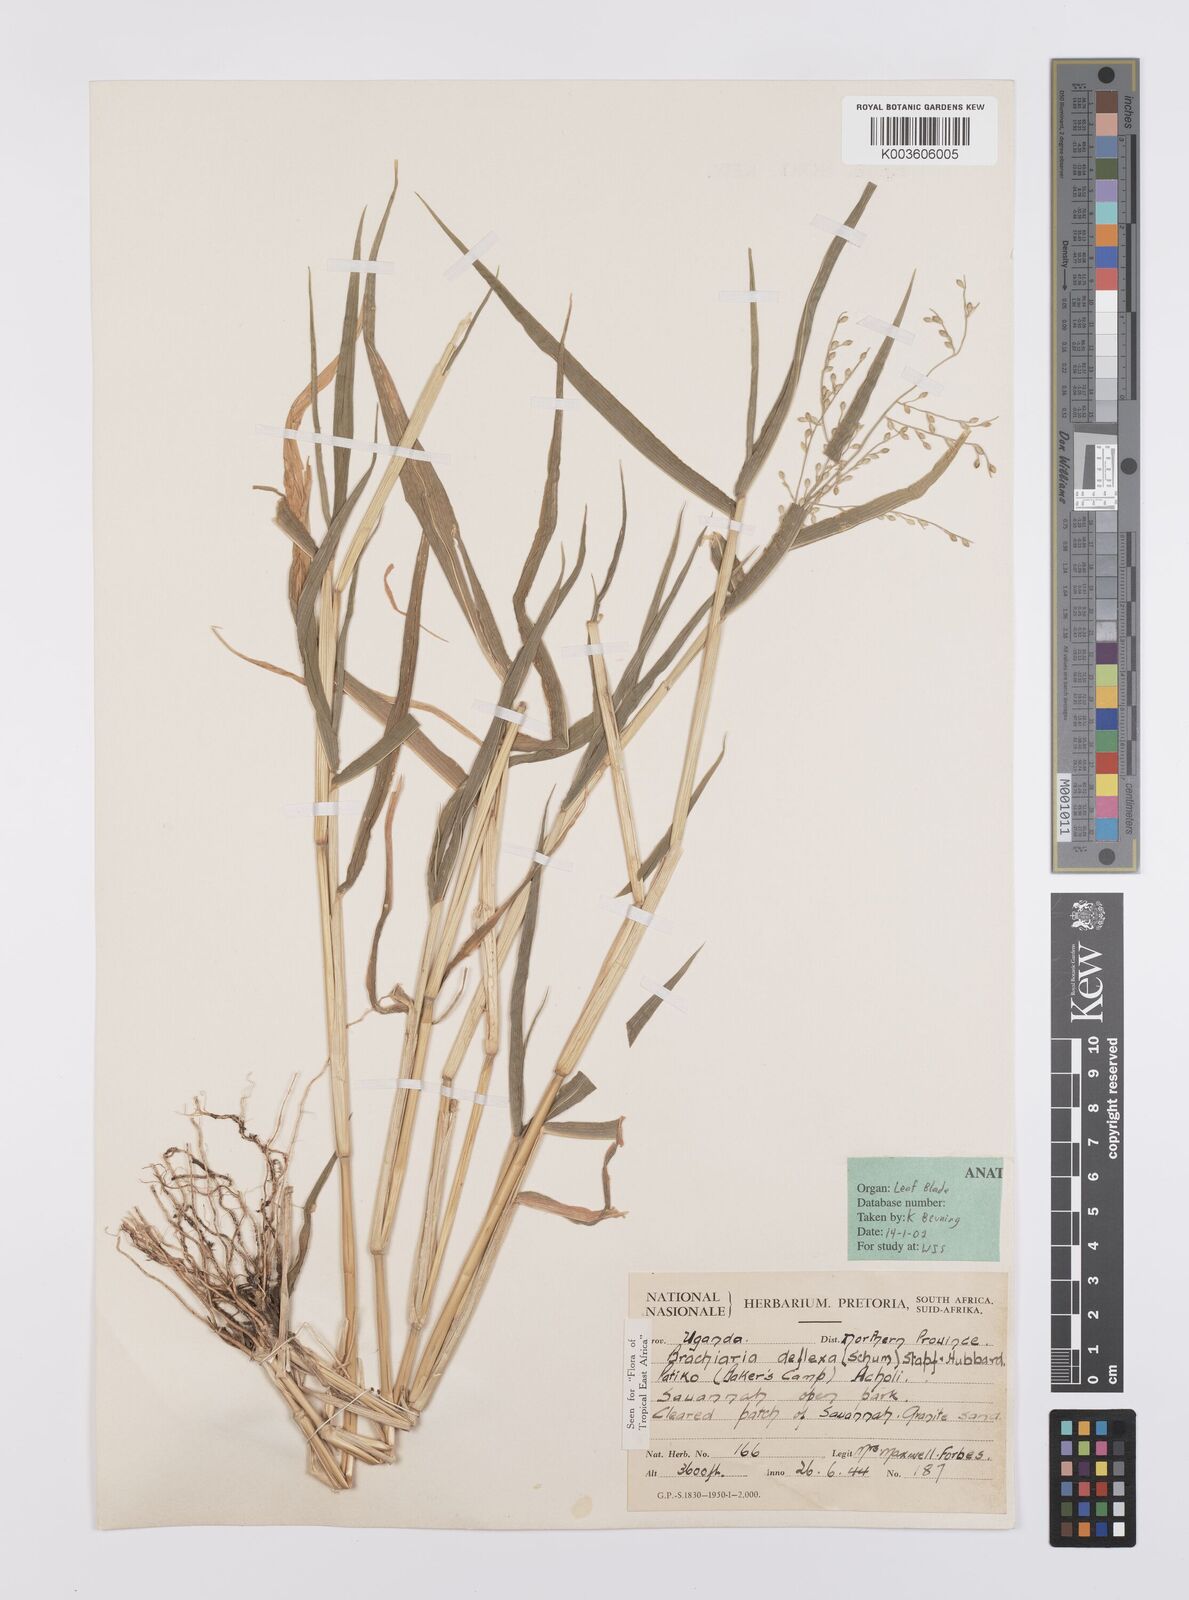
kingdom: Plantae
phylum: Tracheophyta
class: Liliopsida
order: Poales
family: Poaceae
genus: Urochloa
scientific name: Urochloa deflexa
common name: Guinea millet
